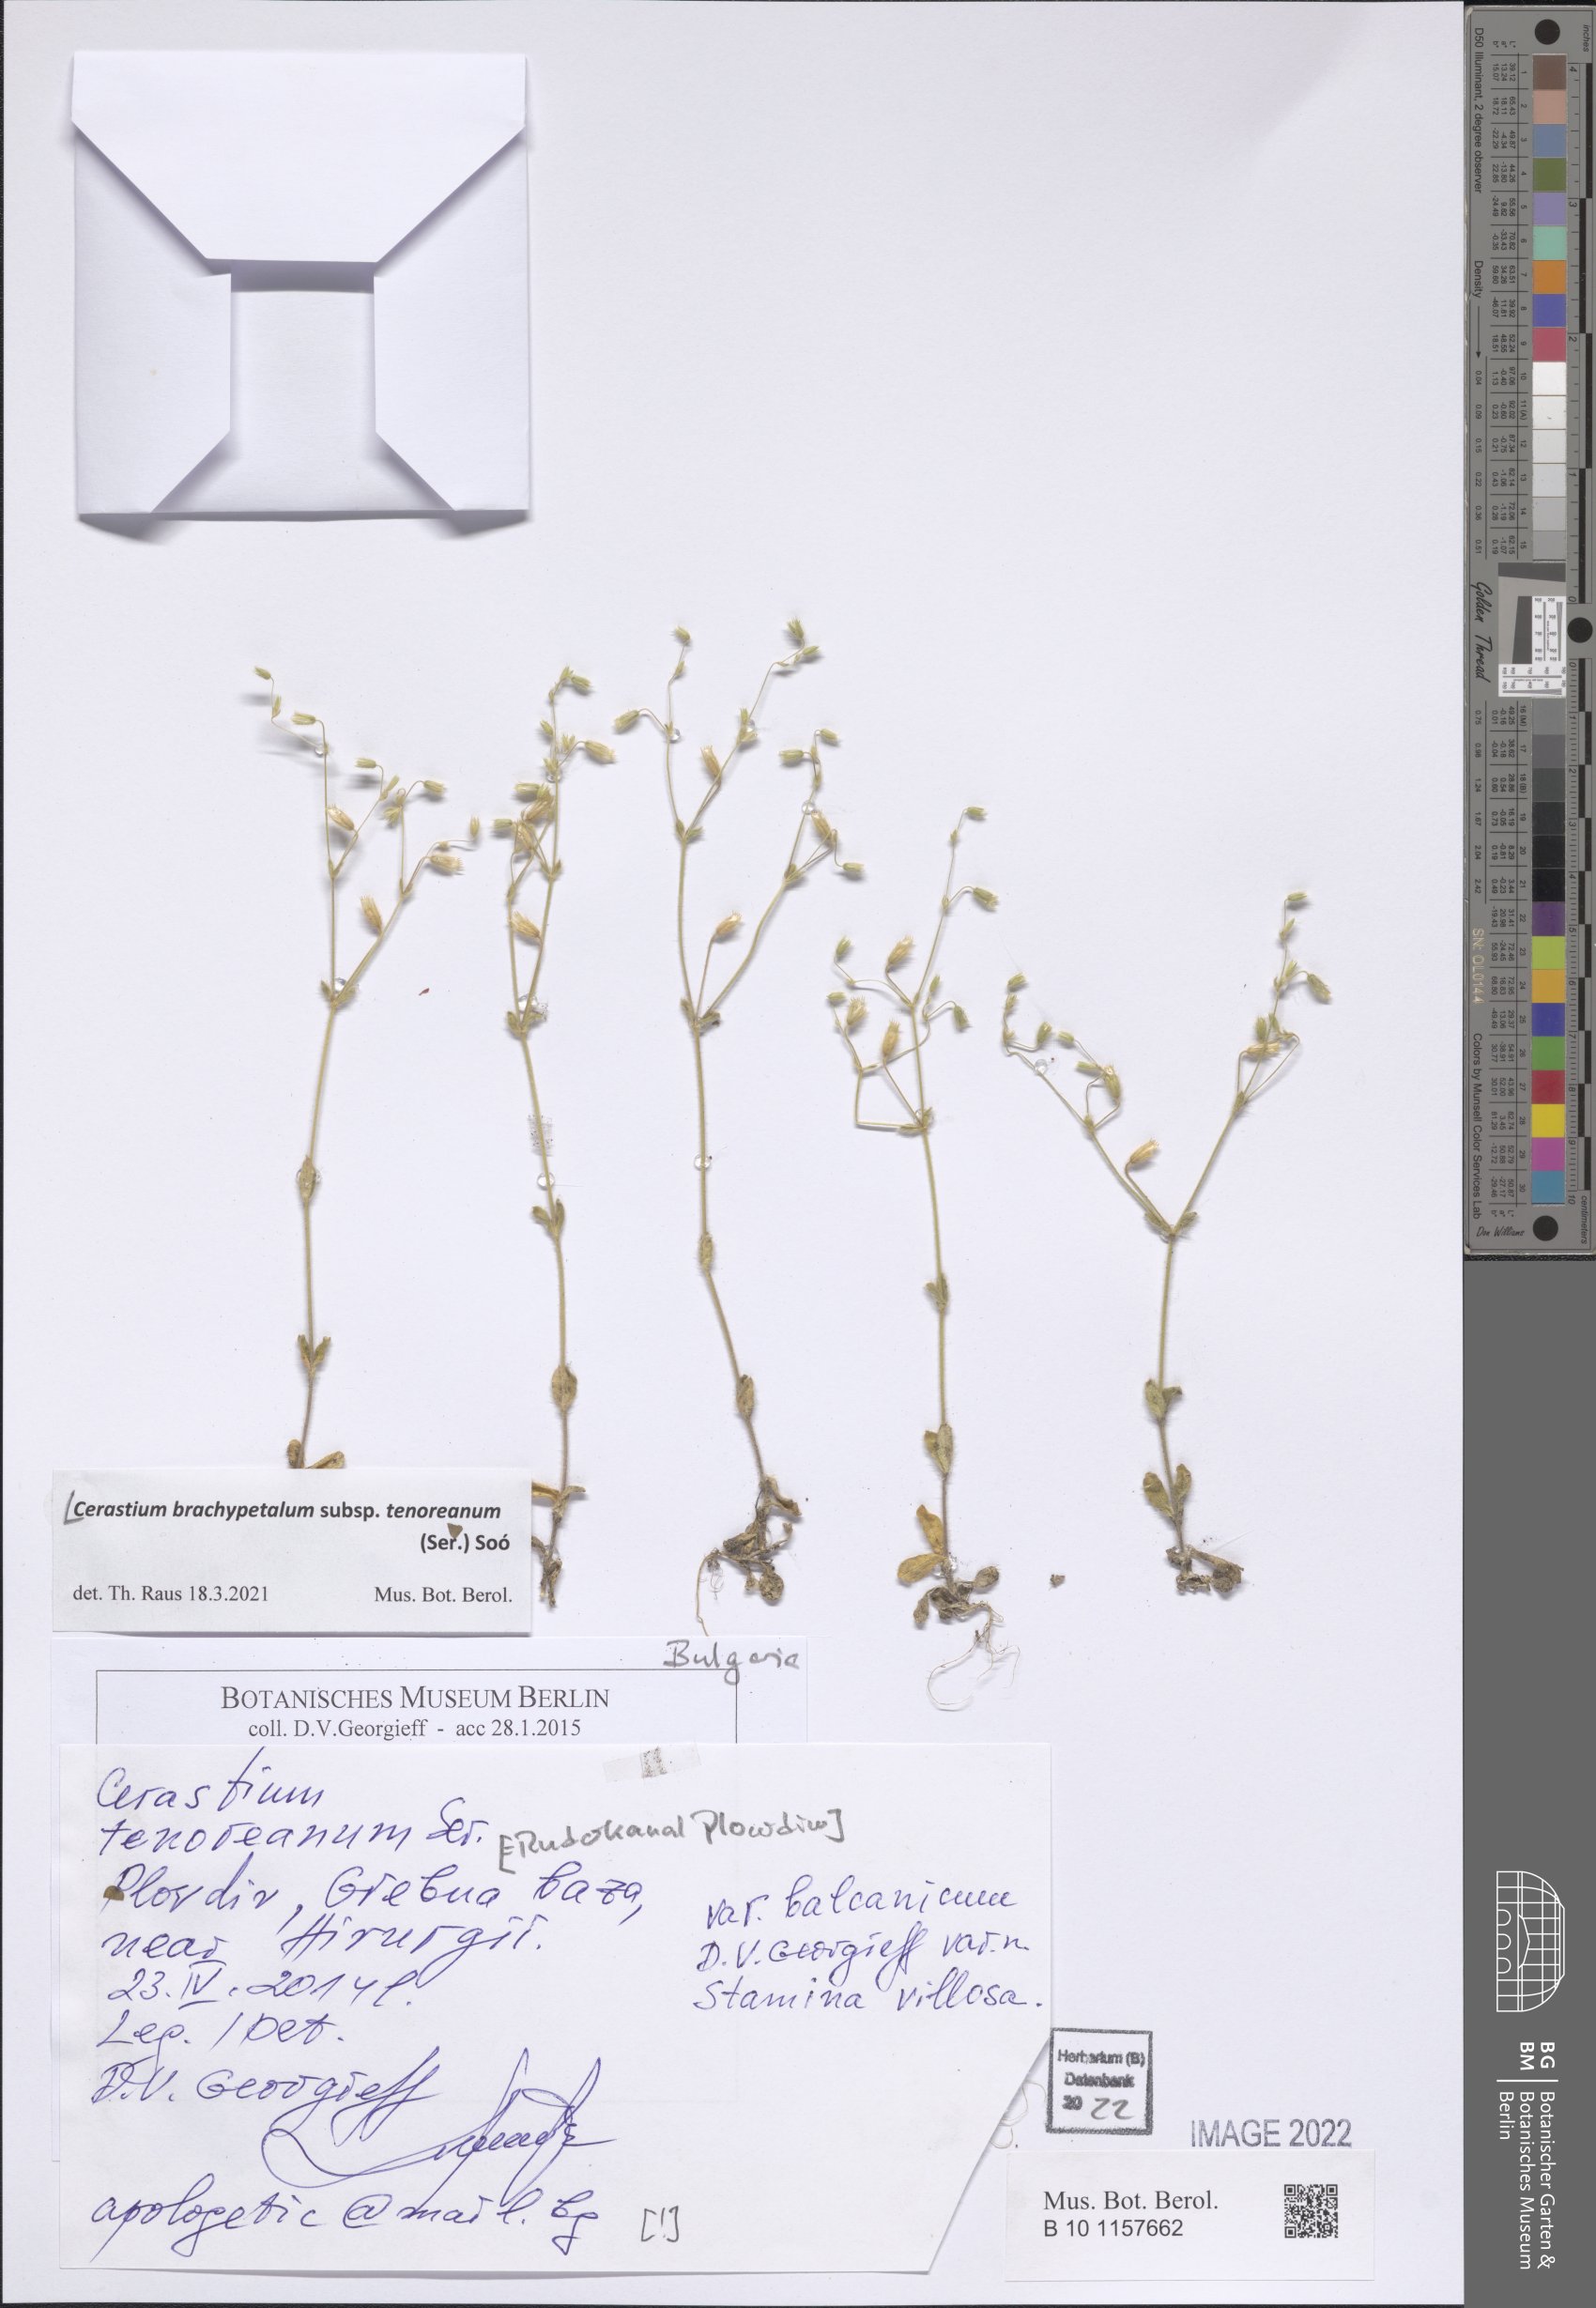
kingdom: Plantae
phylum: Tracheophyta
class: Magnoliopsida
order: Caryophyllales
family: Caryophyllaceae
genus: Cerastium
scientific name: Cerastium tenoreanum
